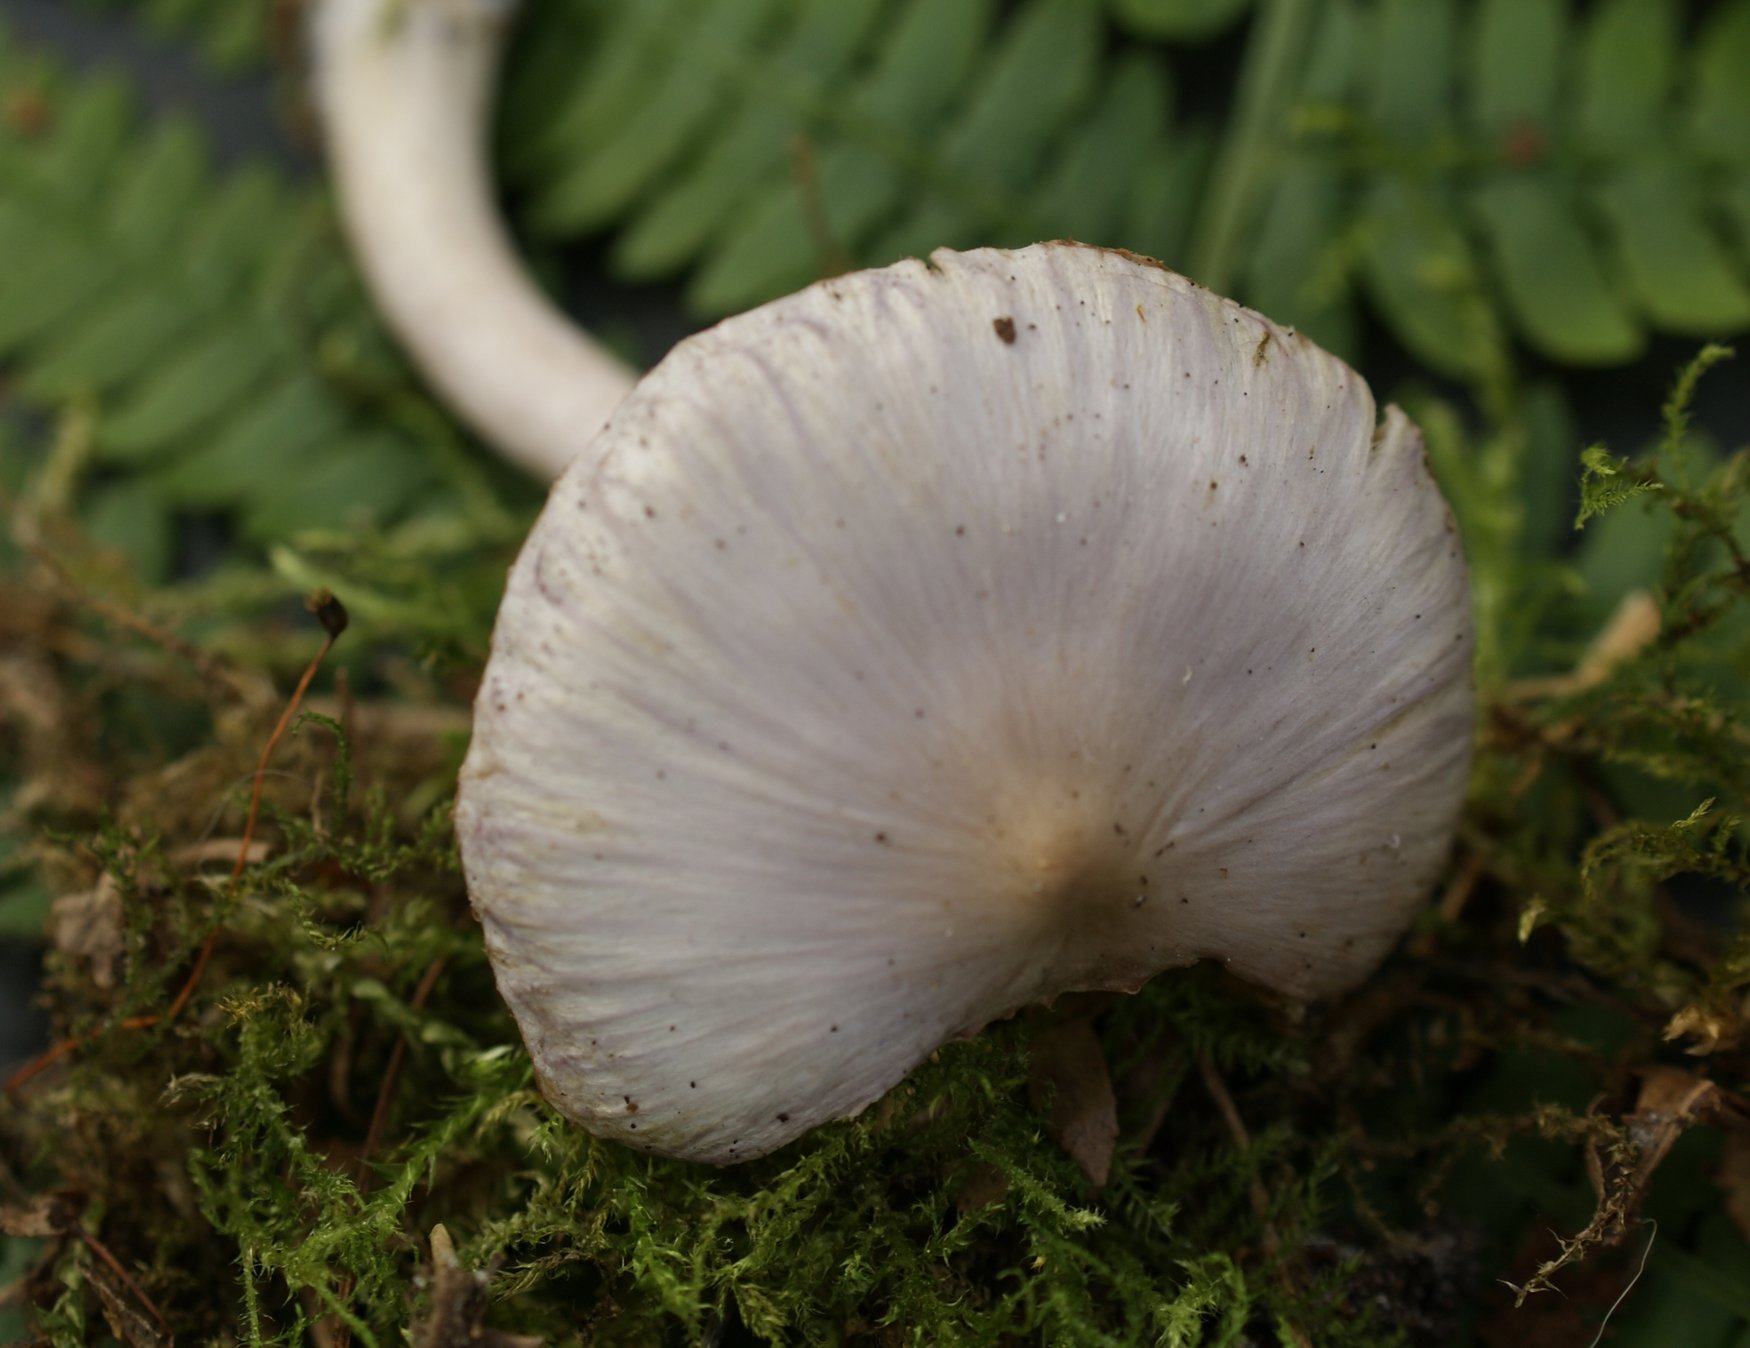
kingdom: Fungi
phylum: Basidiomycota
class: Agaricomycetes
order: Agaricales
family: Inocybaceae
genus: Inocybe
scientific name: Inocybe geophylla
